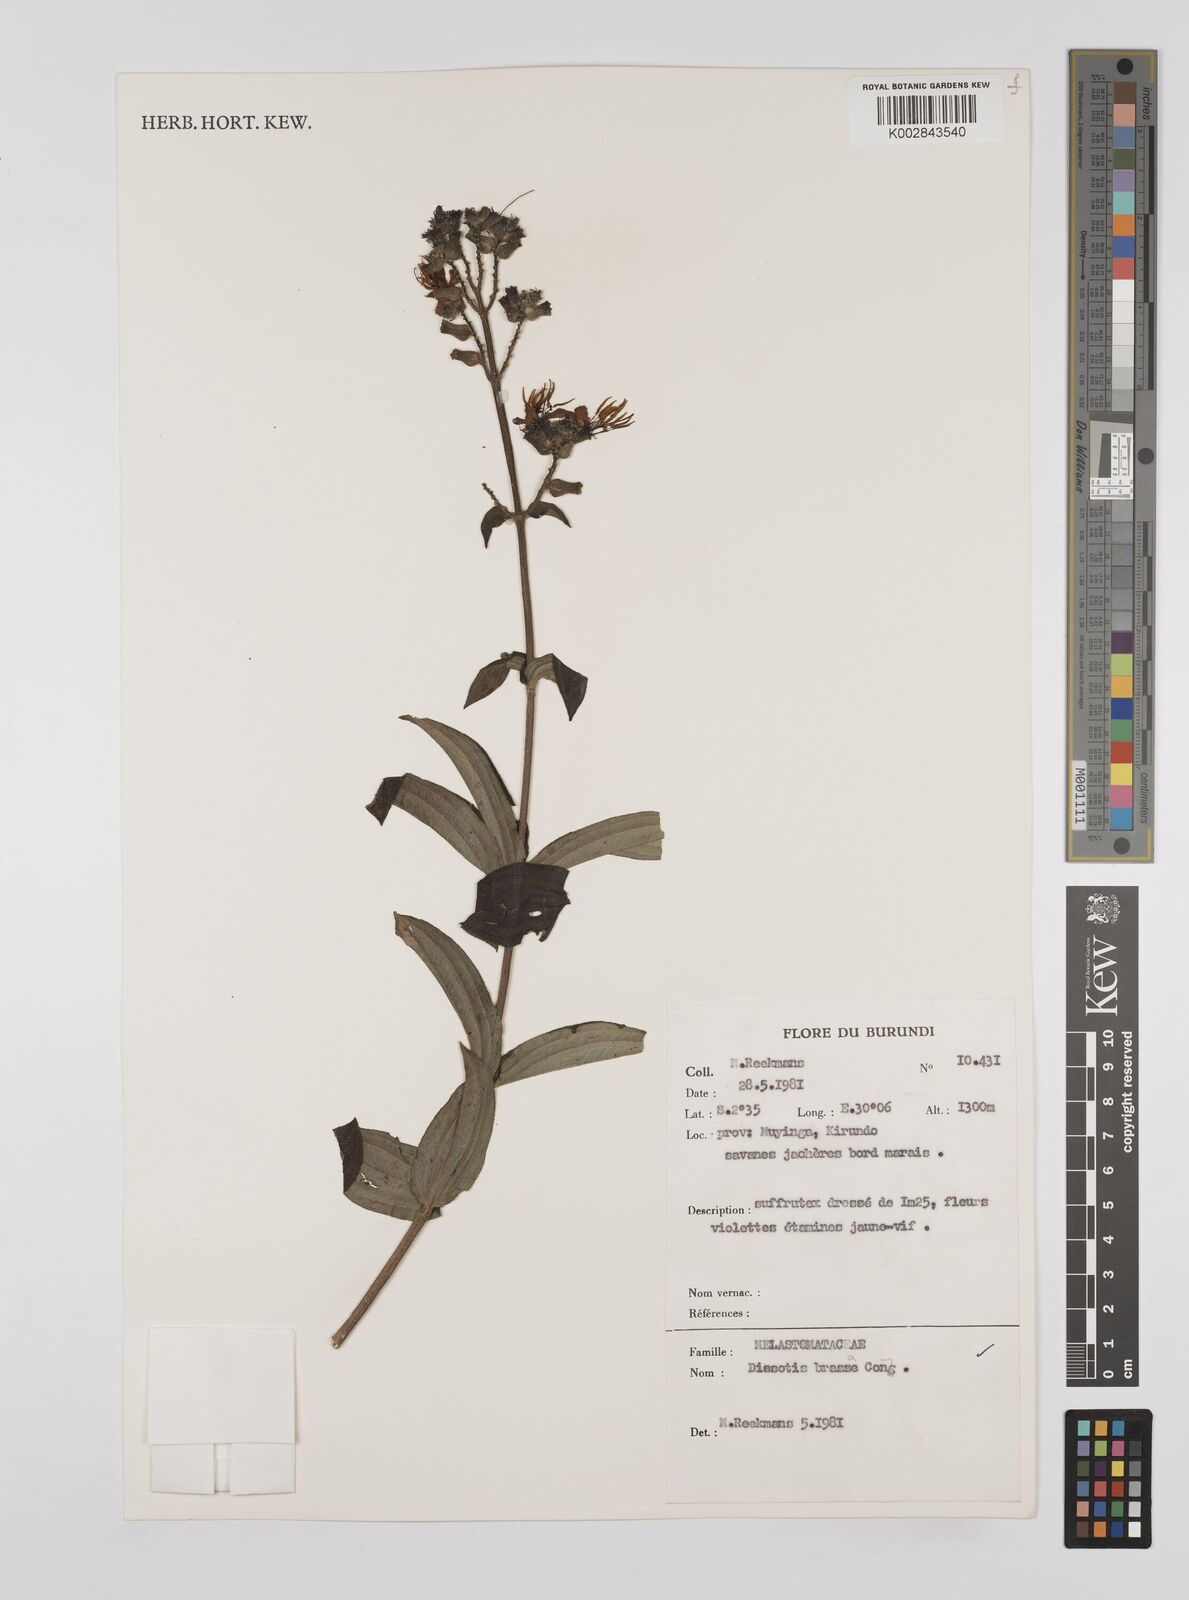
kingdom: Plantae
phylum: Tracheophyta
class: Magnoliopsida
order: Myrtales
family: Melastomataceae
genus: Dupineta
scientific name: Dupineta brazzae
